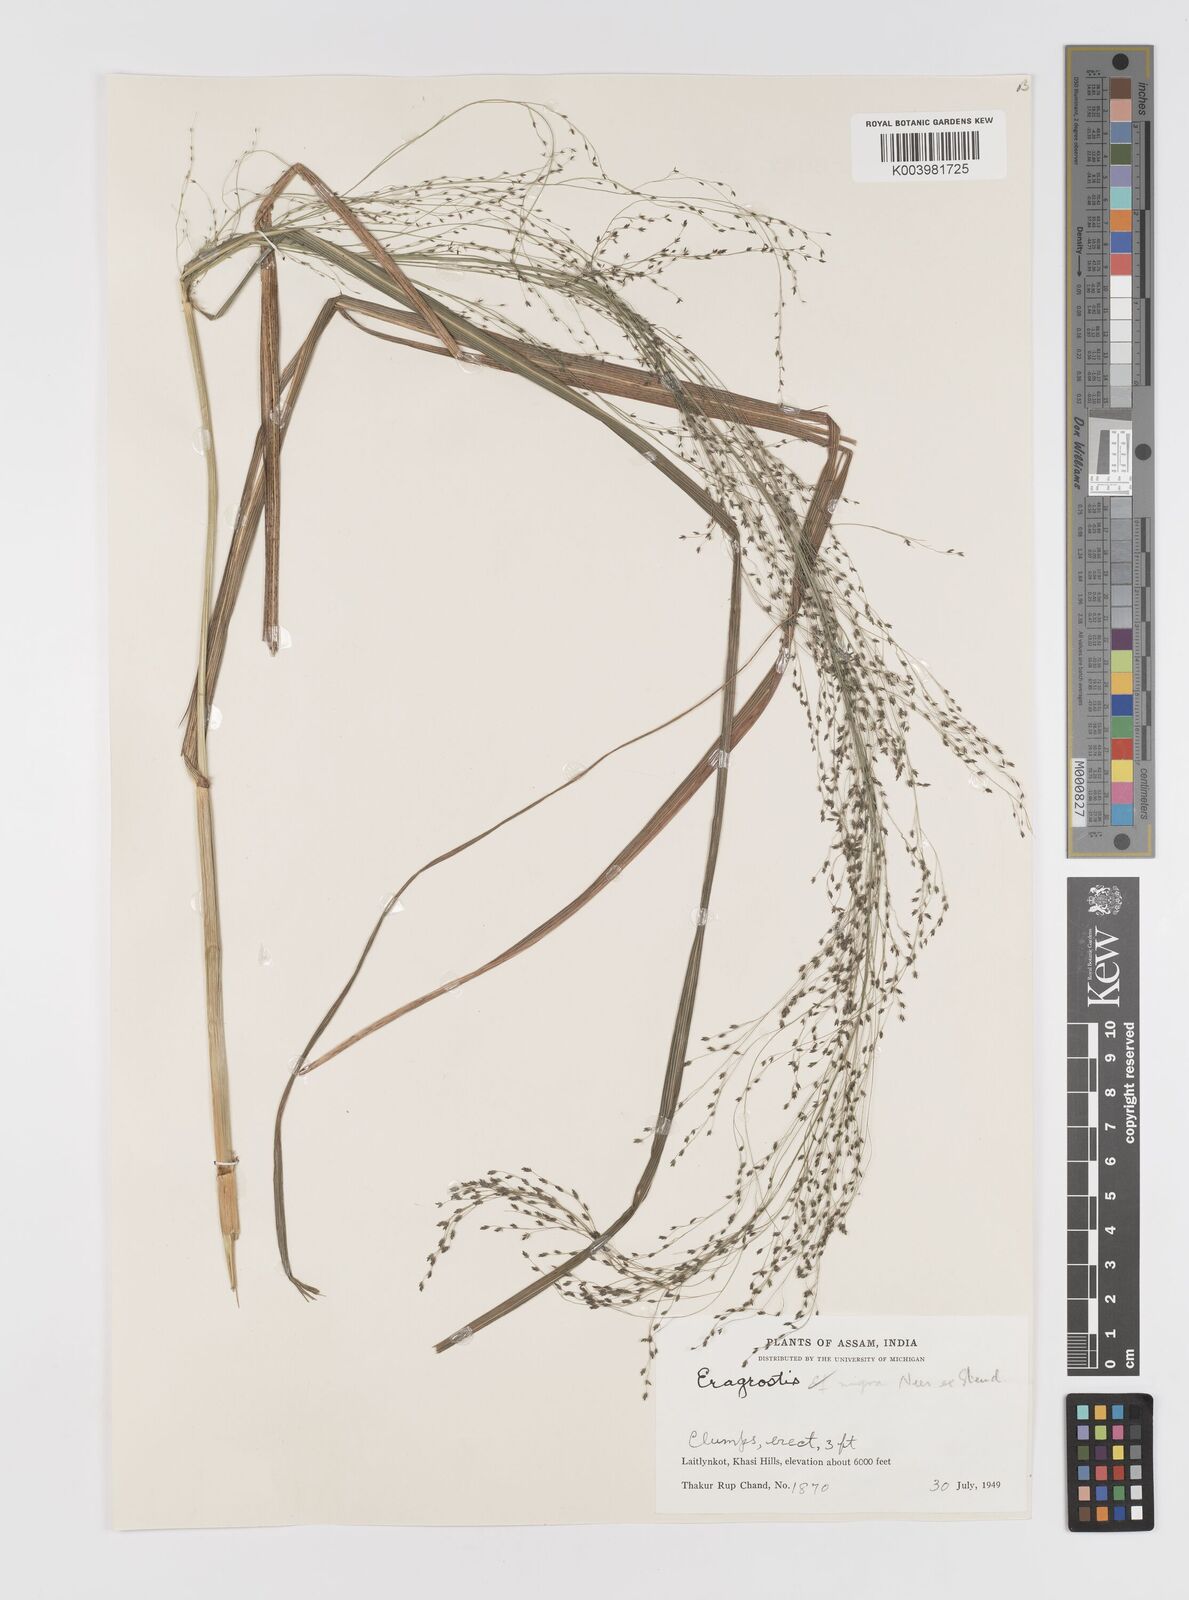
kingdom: Plantae
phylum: Tracheophyta
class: Liliopsida
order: Poales
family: Poaceae
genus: Eragrostis
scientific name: Eragrostis nigra
